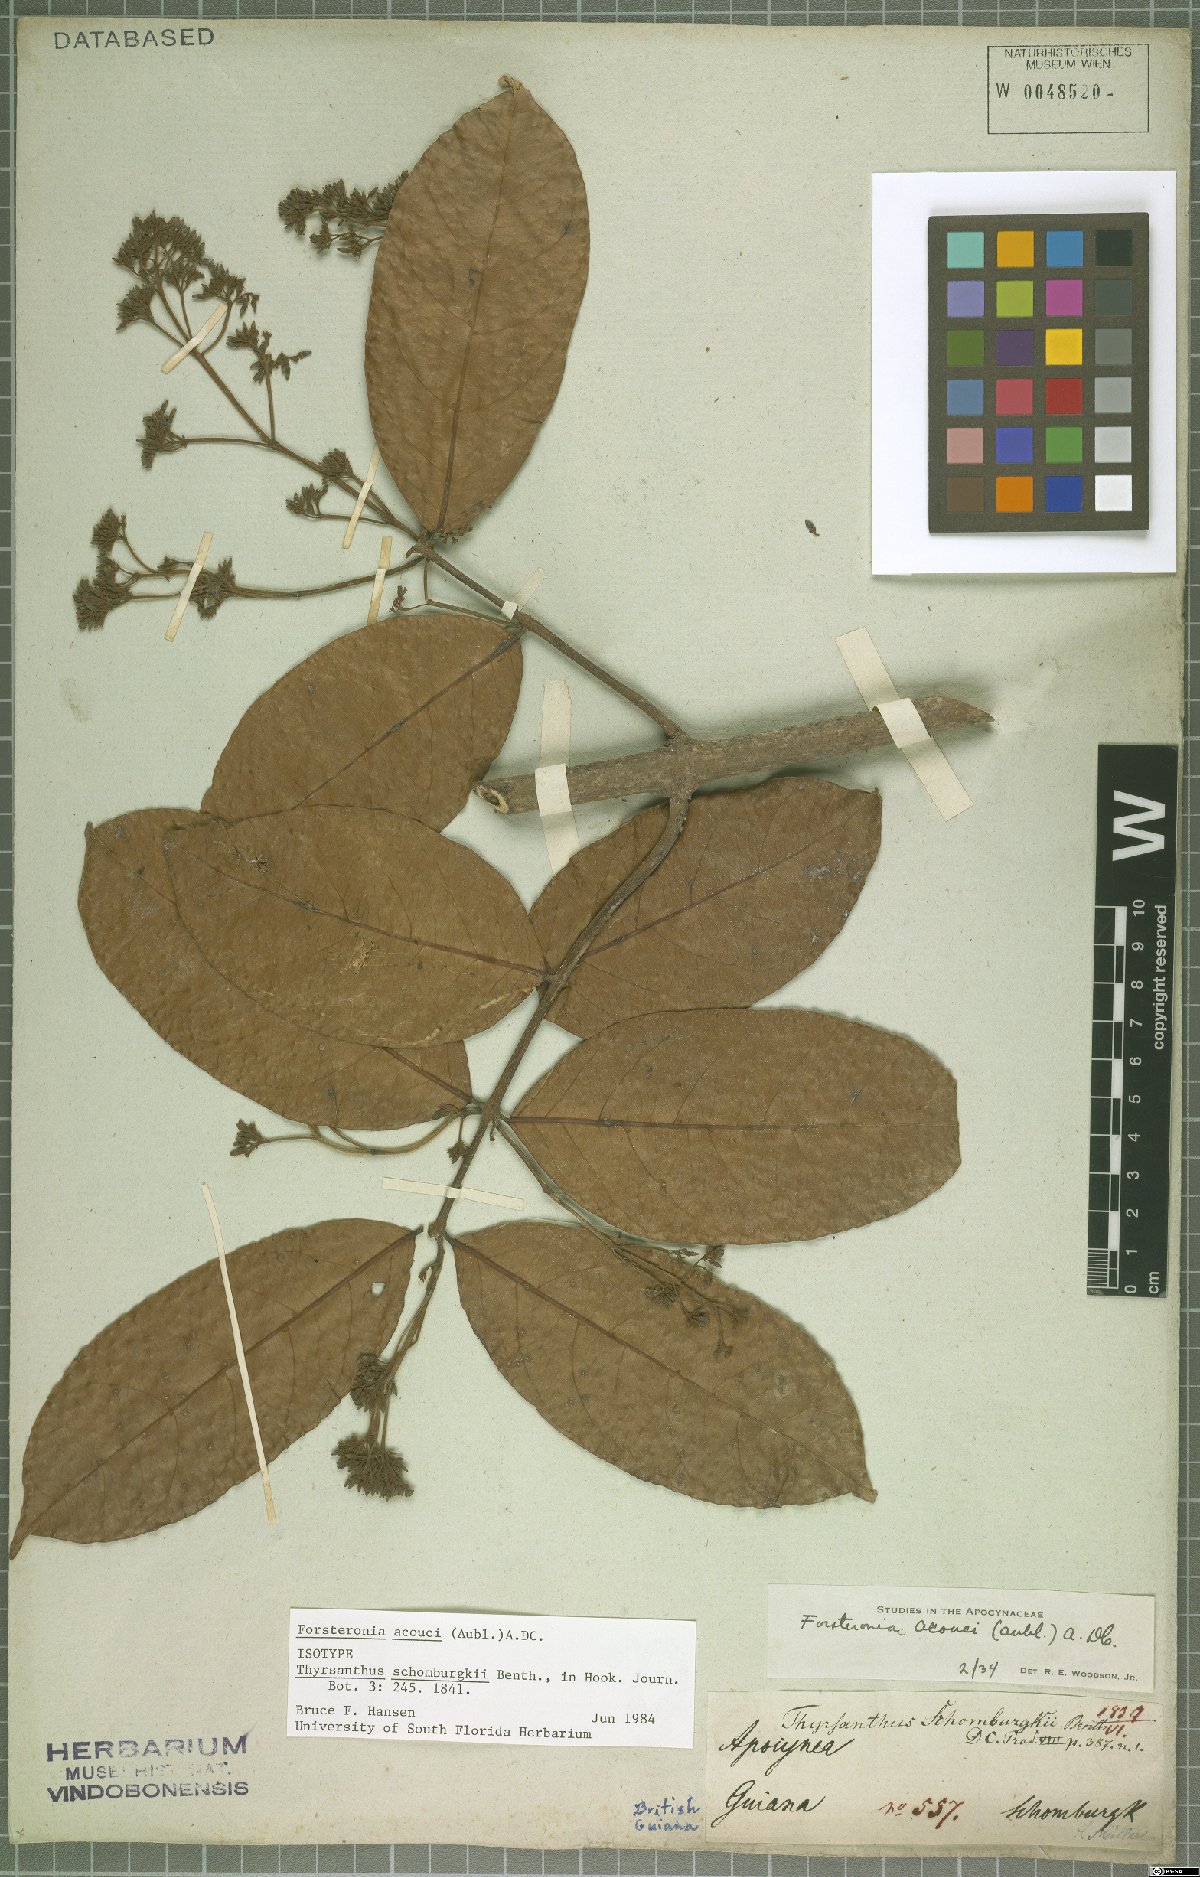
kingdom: Plantae
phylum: Tracheophyta
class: Magnoliopsida
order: Gentianales
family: Apocynaceae
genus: Forsteronia
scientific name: Forsteronia acouci
